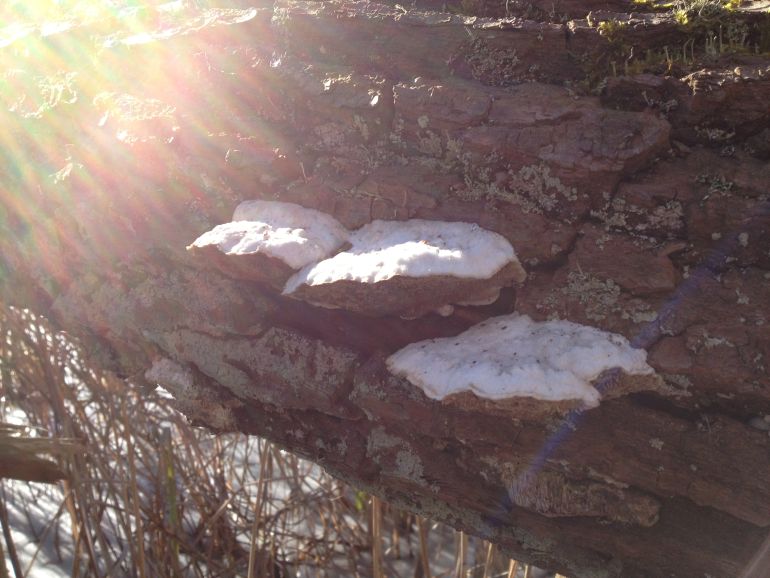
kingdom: Fungi
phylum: Basidiomycota
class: Agaricomycetes
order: Polyporales
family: Polyporaceae
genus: Trametes
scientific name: Trametes suaveolens
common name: vellugtende læderporesvamp
